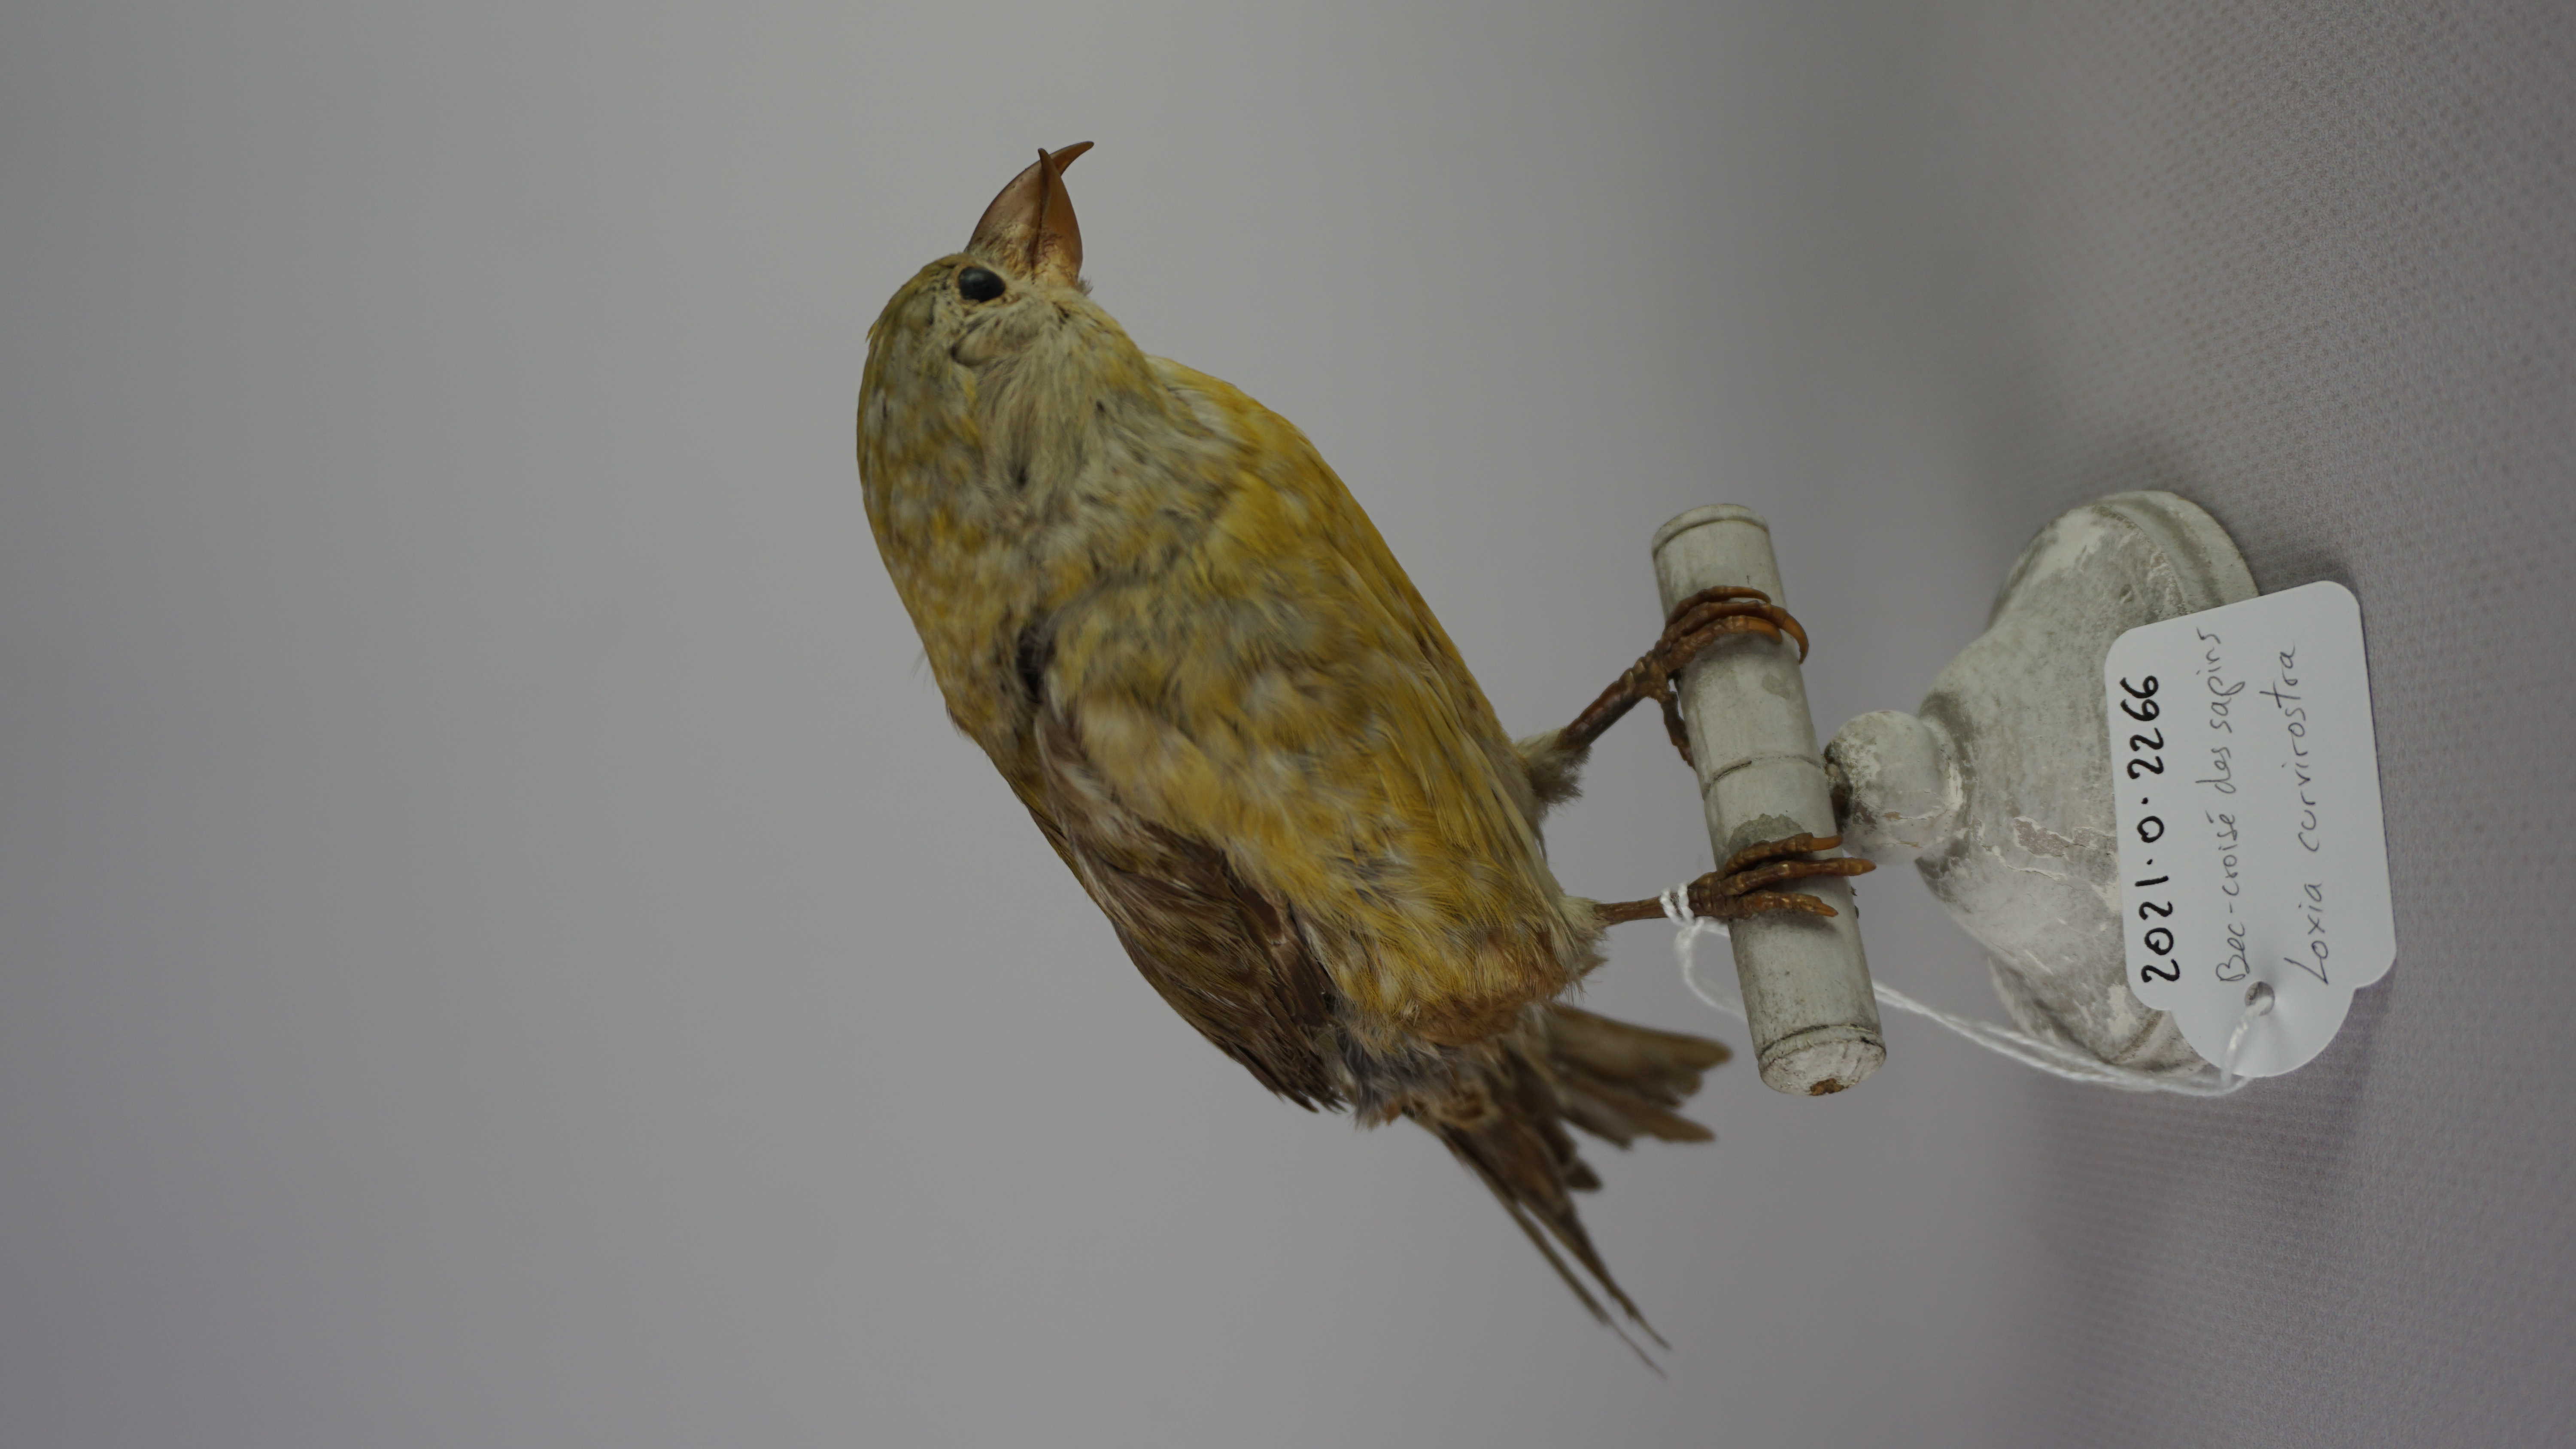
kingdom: Animalia
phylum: Chordata
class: Aves
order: Passeriformes
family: Fringillidae
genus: Loxia
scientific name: Loxia curvirostra
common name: Red crossbill
